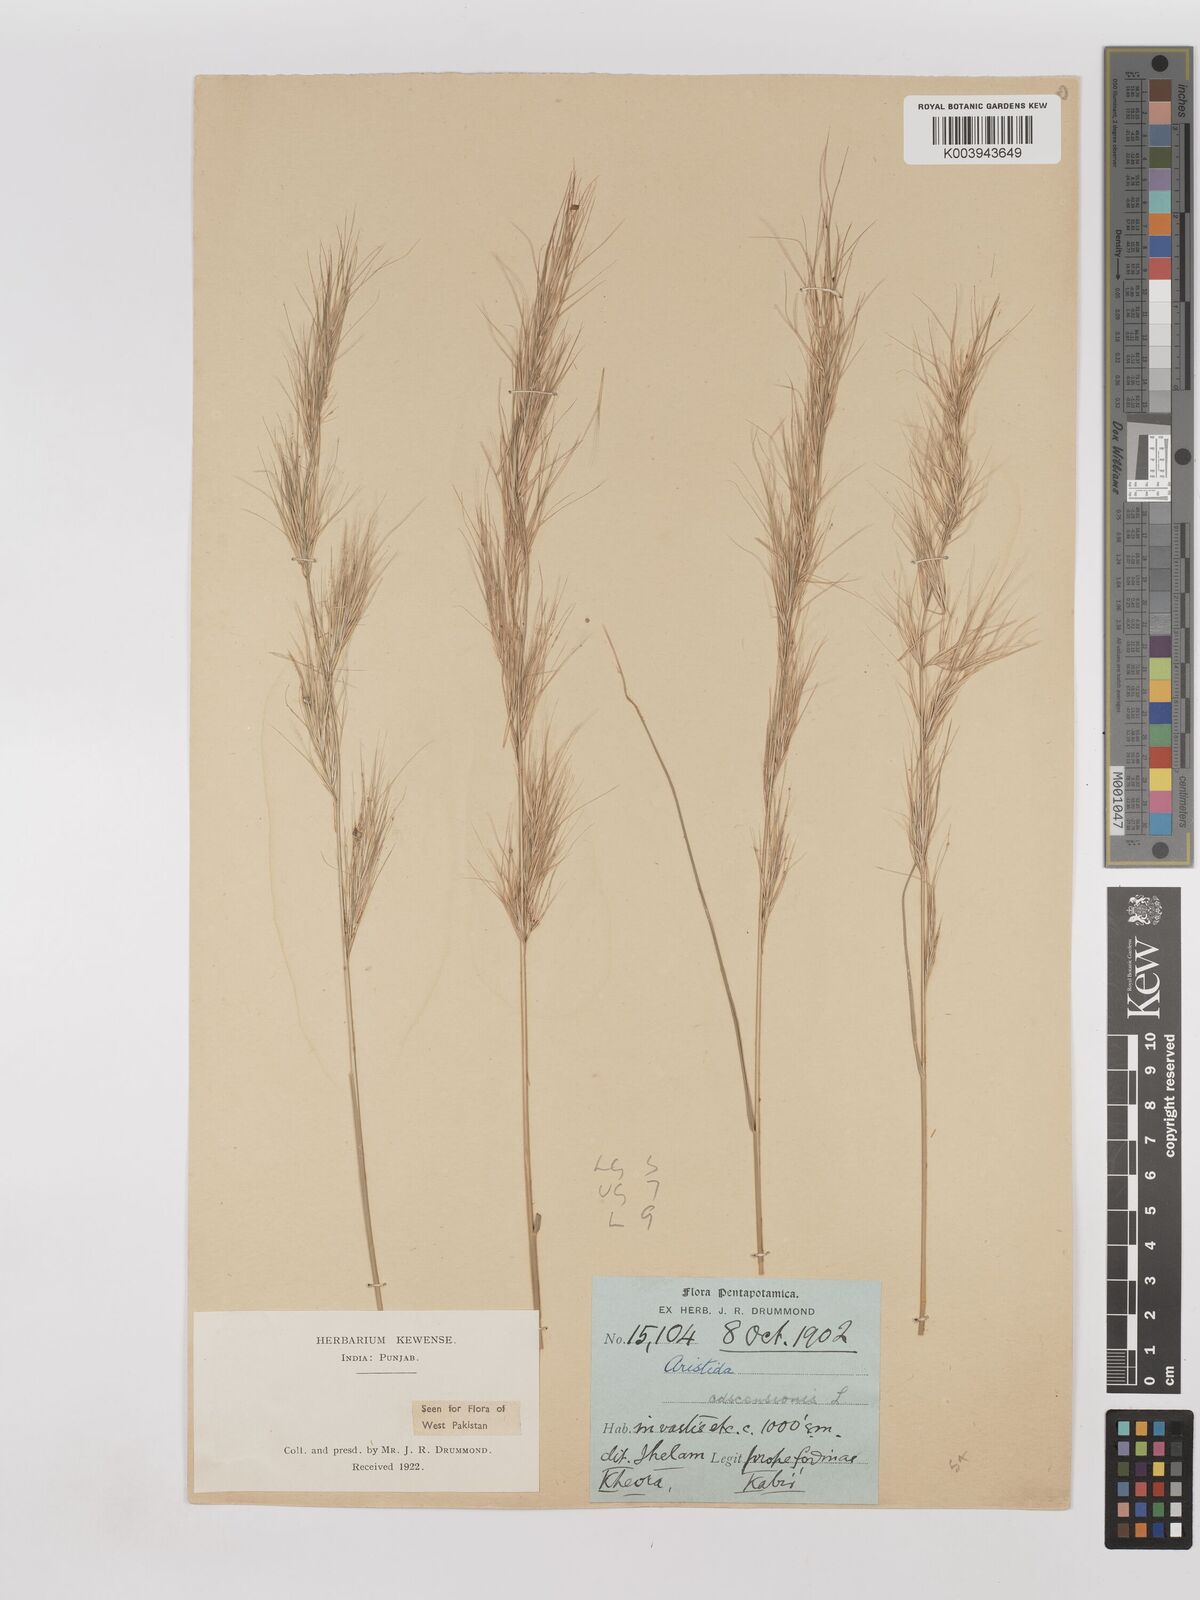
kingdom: Plantae
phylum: Tracheophyta
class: Liliopsida
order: Poales
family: Poaceae
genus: Aristida
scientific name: Aristida adscensionis
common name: Sixweeks threeawn
